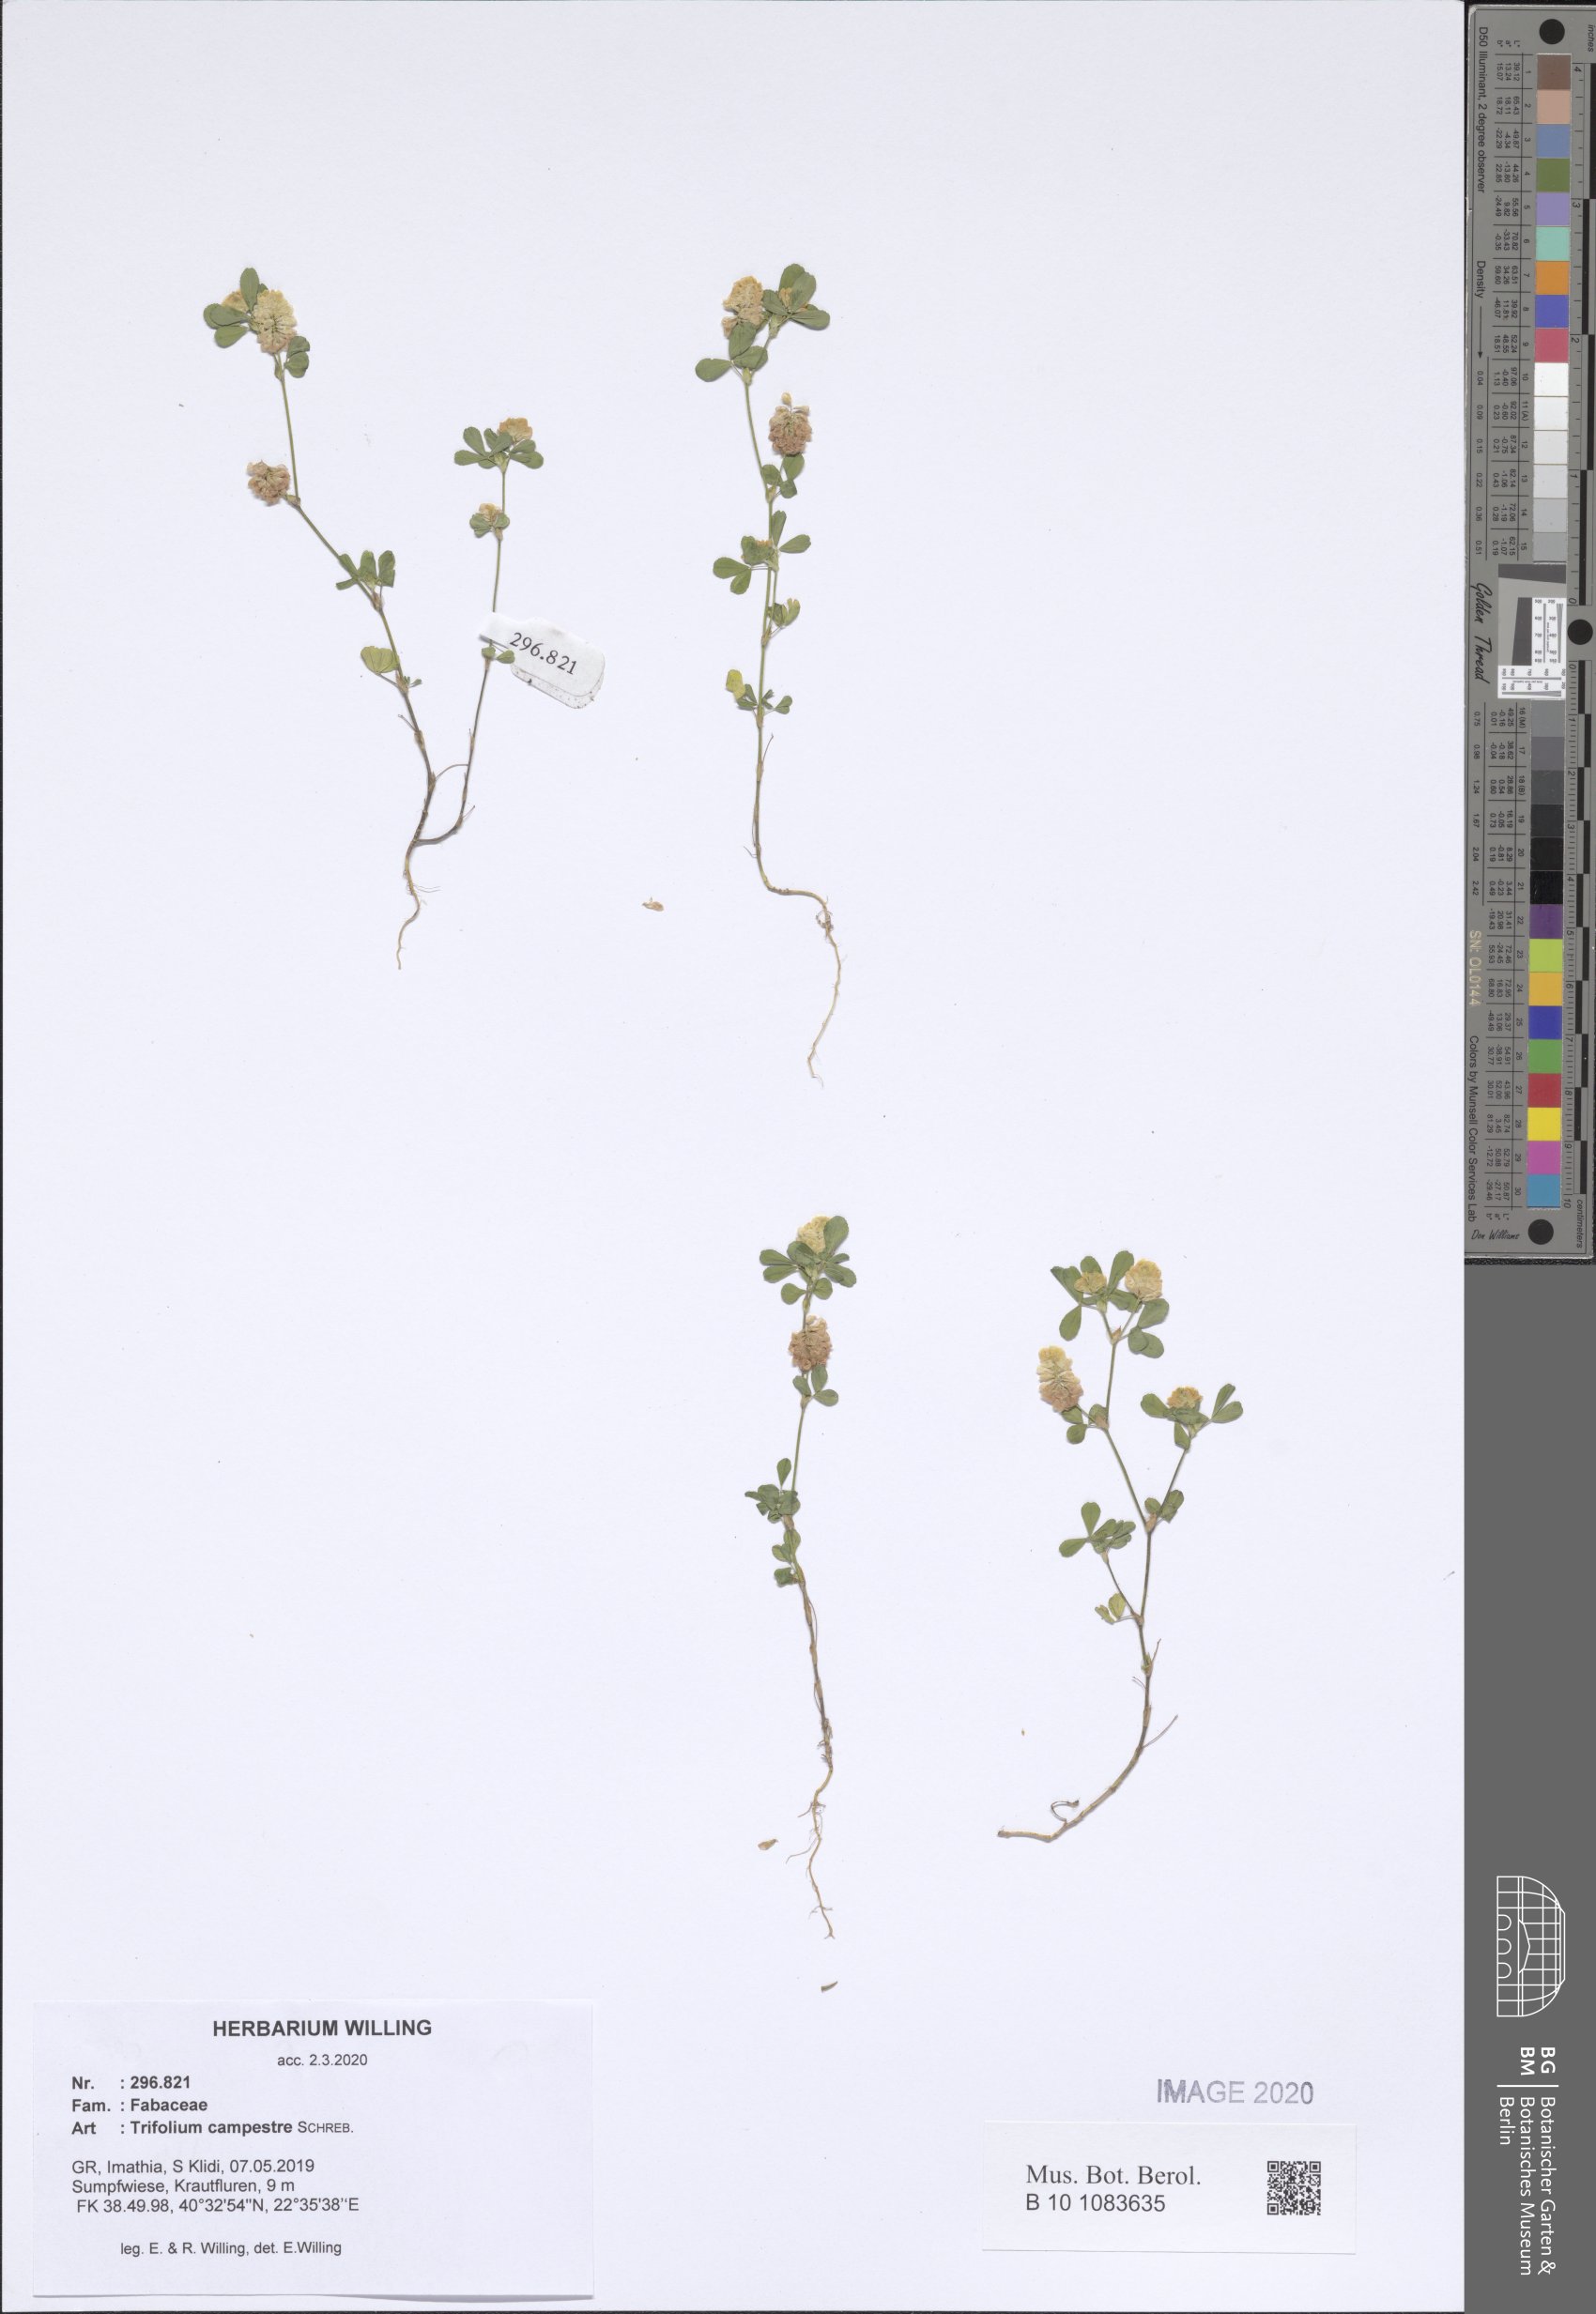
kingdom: Plantae
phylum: Tracheophyta
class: Magnoliopsida
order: Fabales
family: Fabaceae
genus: Trifolium
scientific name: Trifolium campestre
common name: Field clover
